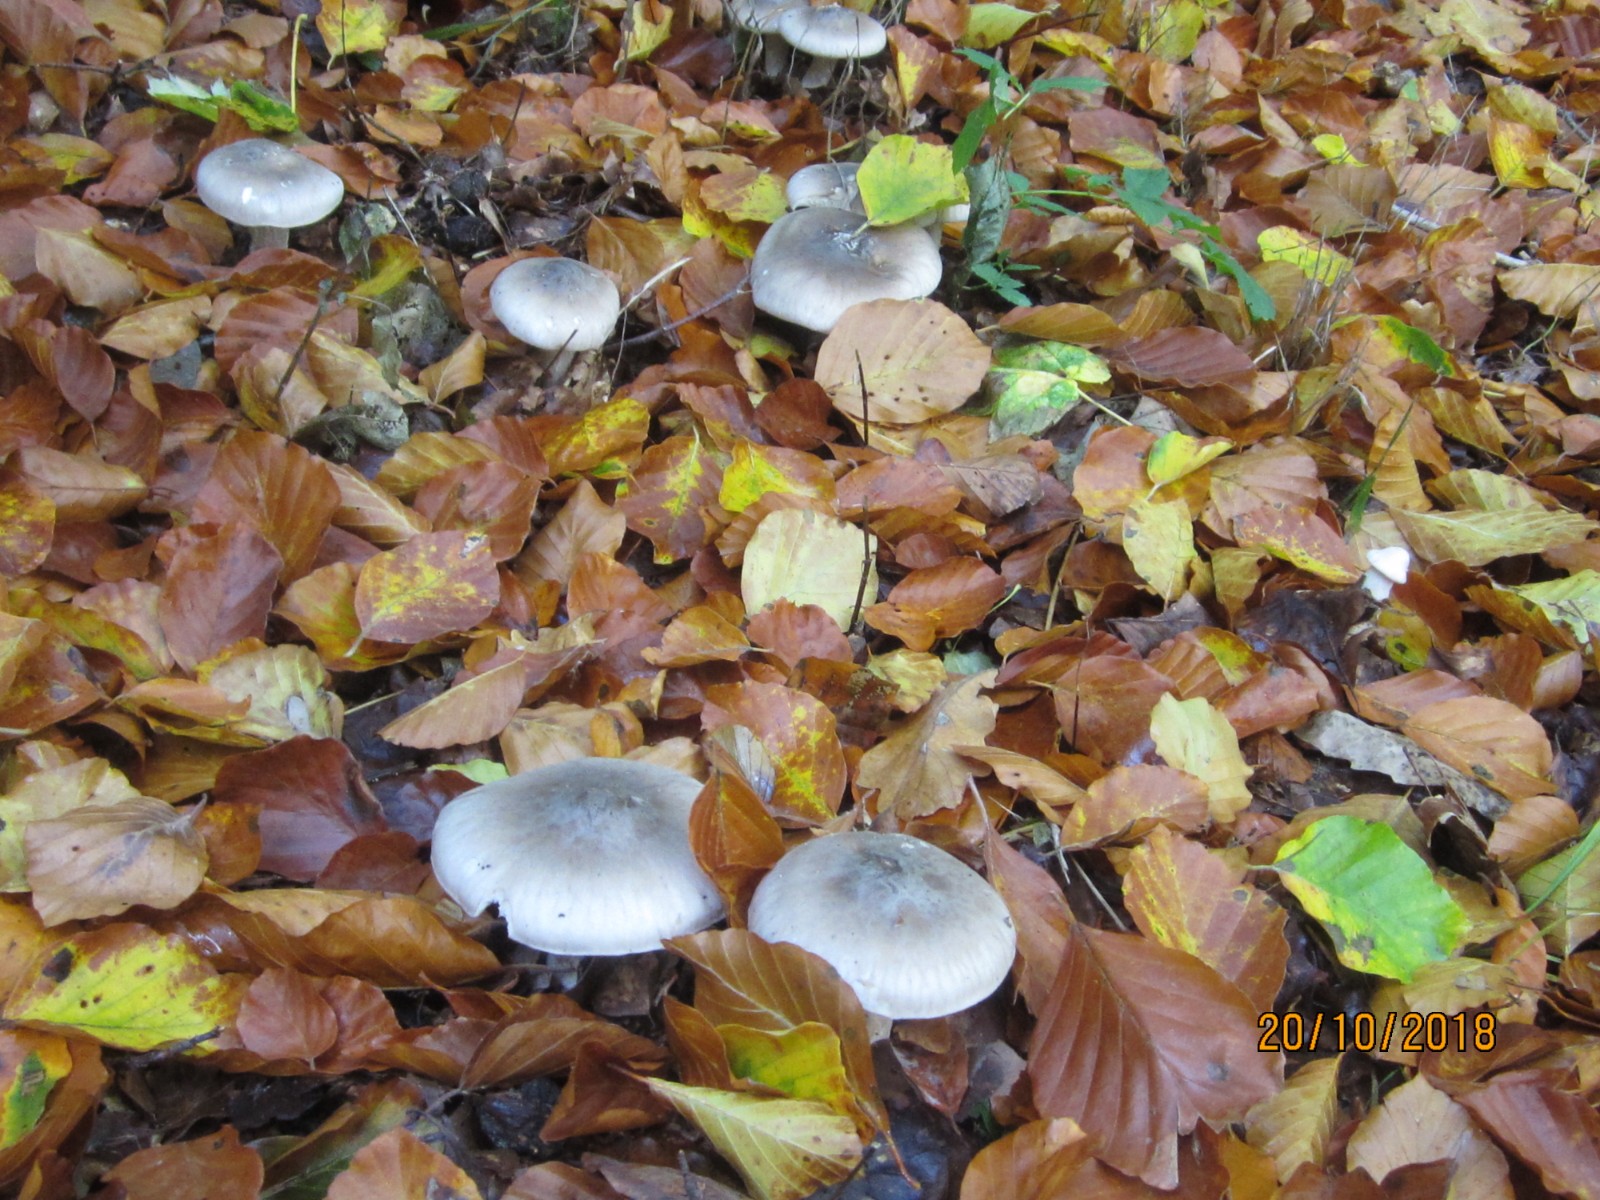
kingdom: Fungi
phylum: Basidiomycota
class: Agaricomycetes
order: Agaricales
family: Tricholomataceae
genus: Clitocybe
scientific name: Clitocybe nebularis
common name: tåge-tragthat
